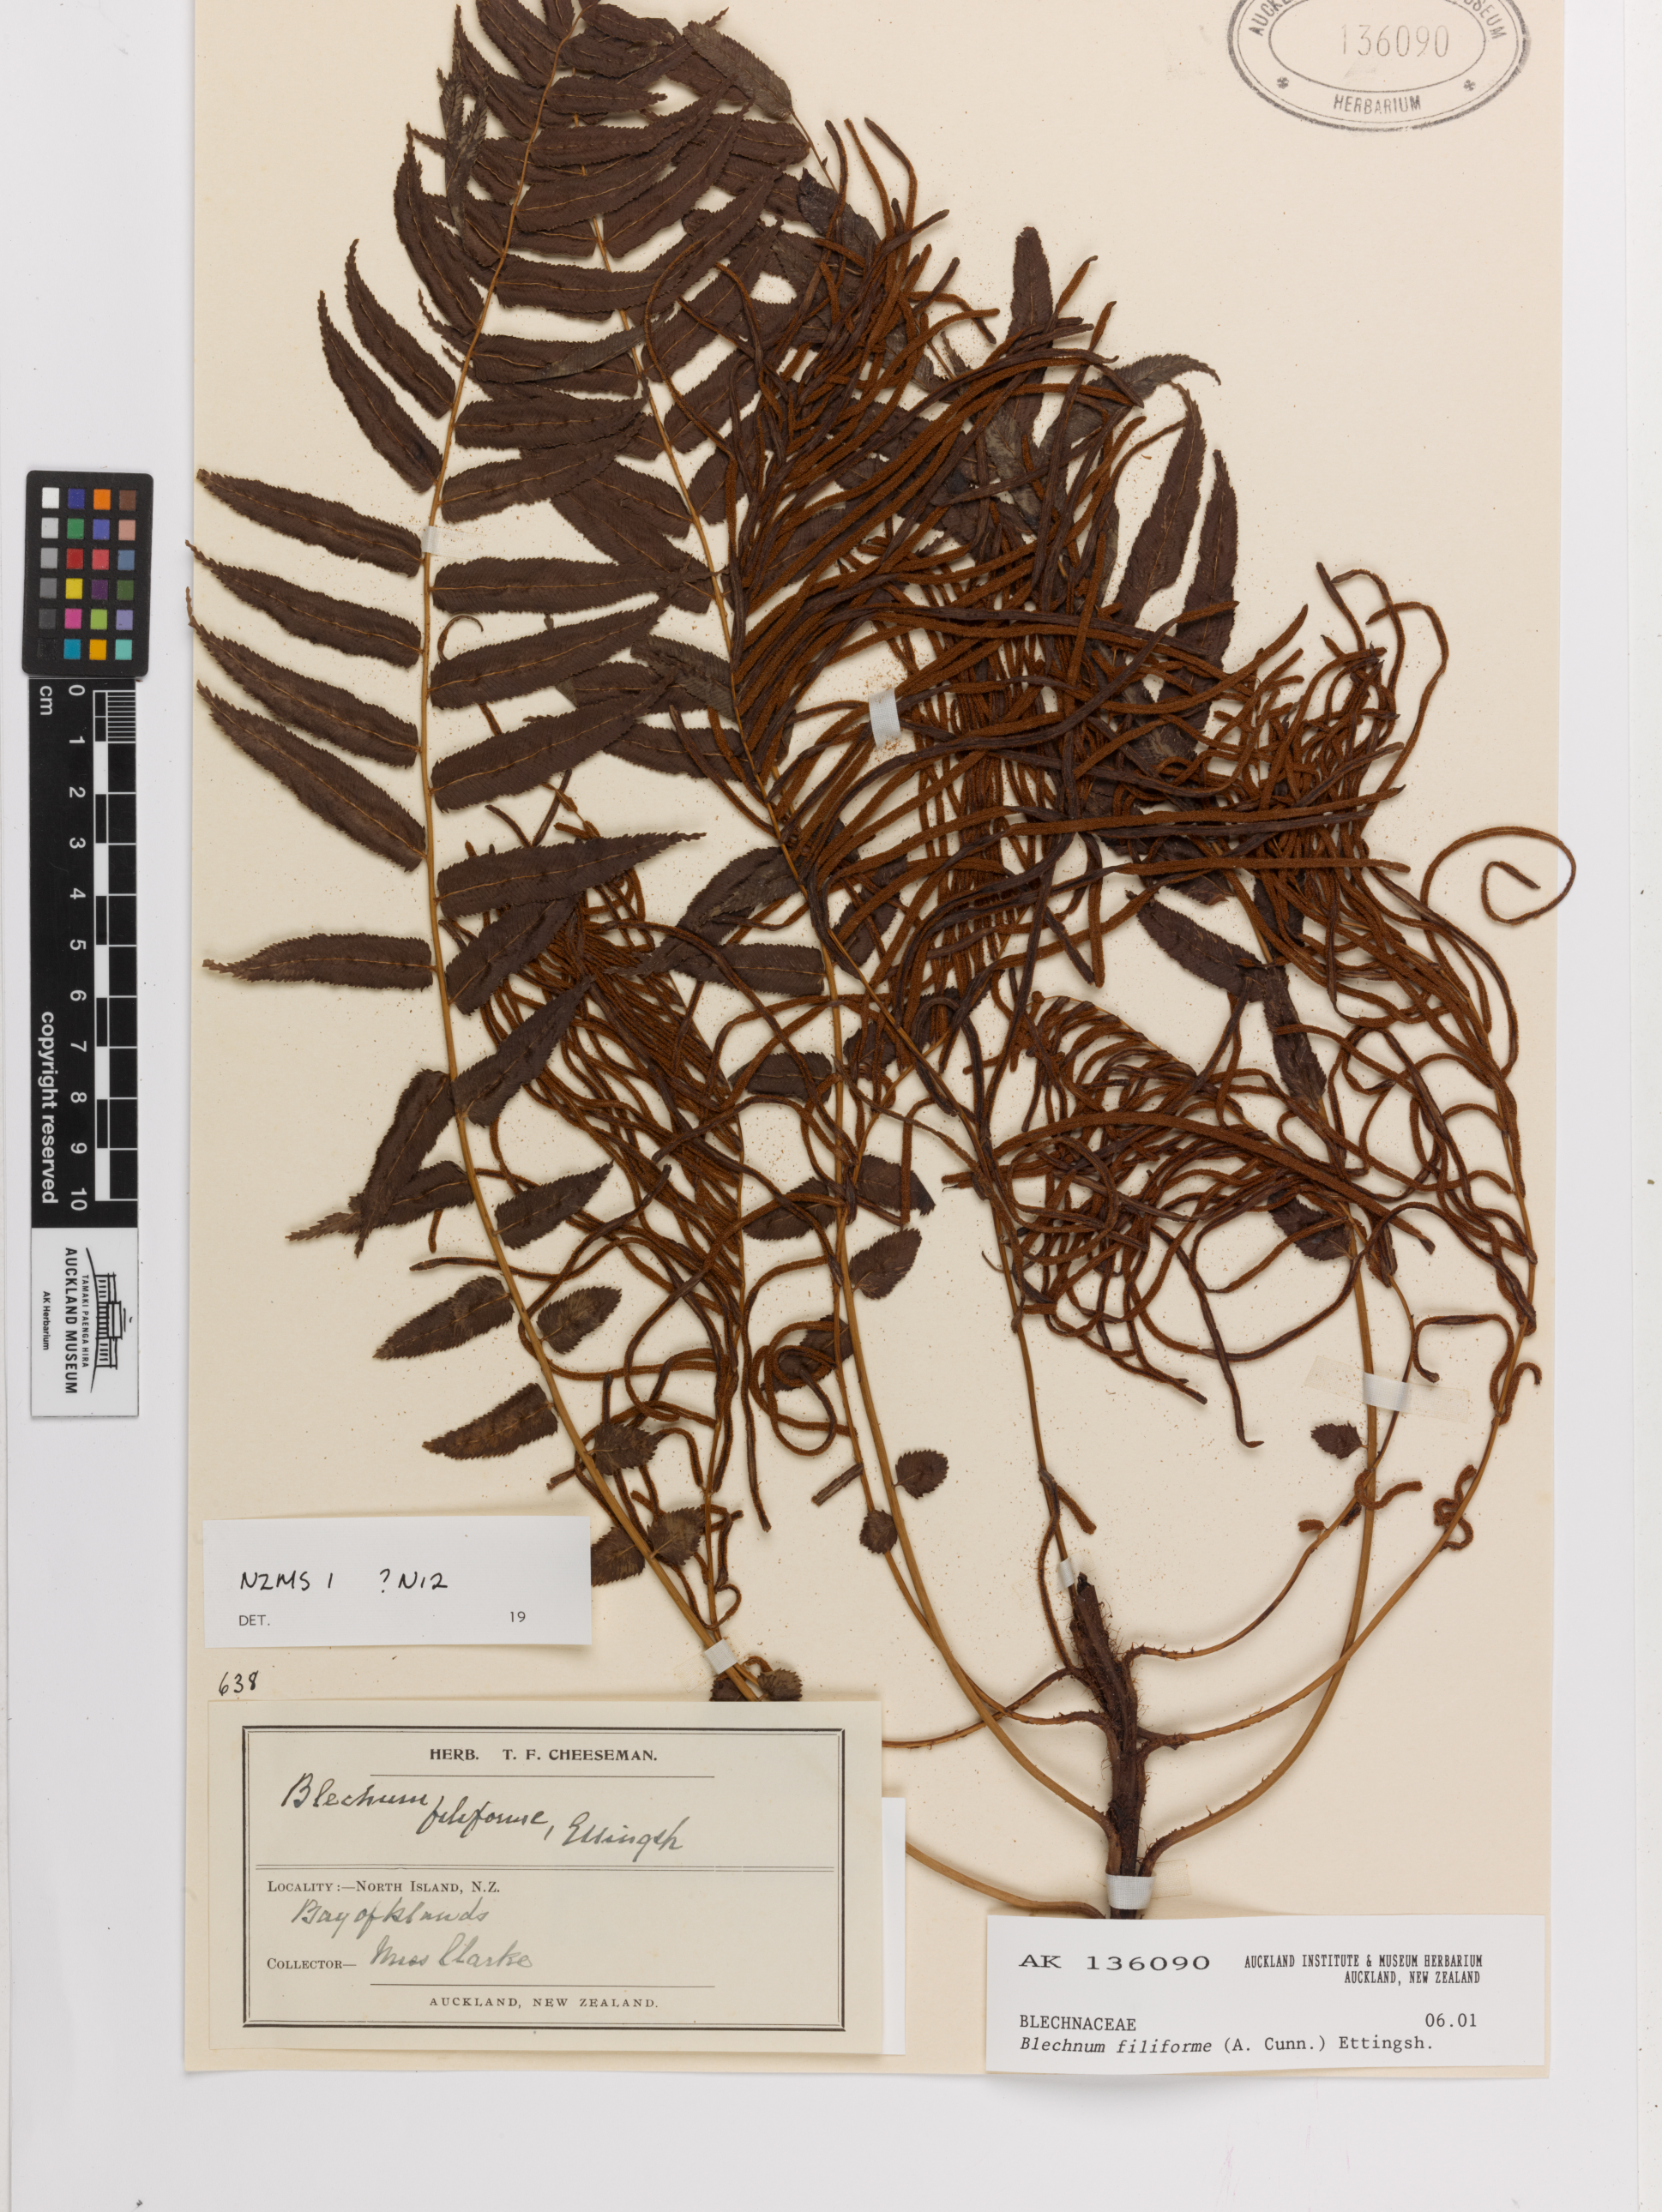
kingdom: Plantae
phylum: Tracheophyta
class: Polypodiopsida
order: Polypodiales
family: Blechnaceae
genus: Icarus
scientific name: Icarus filiformis
